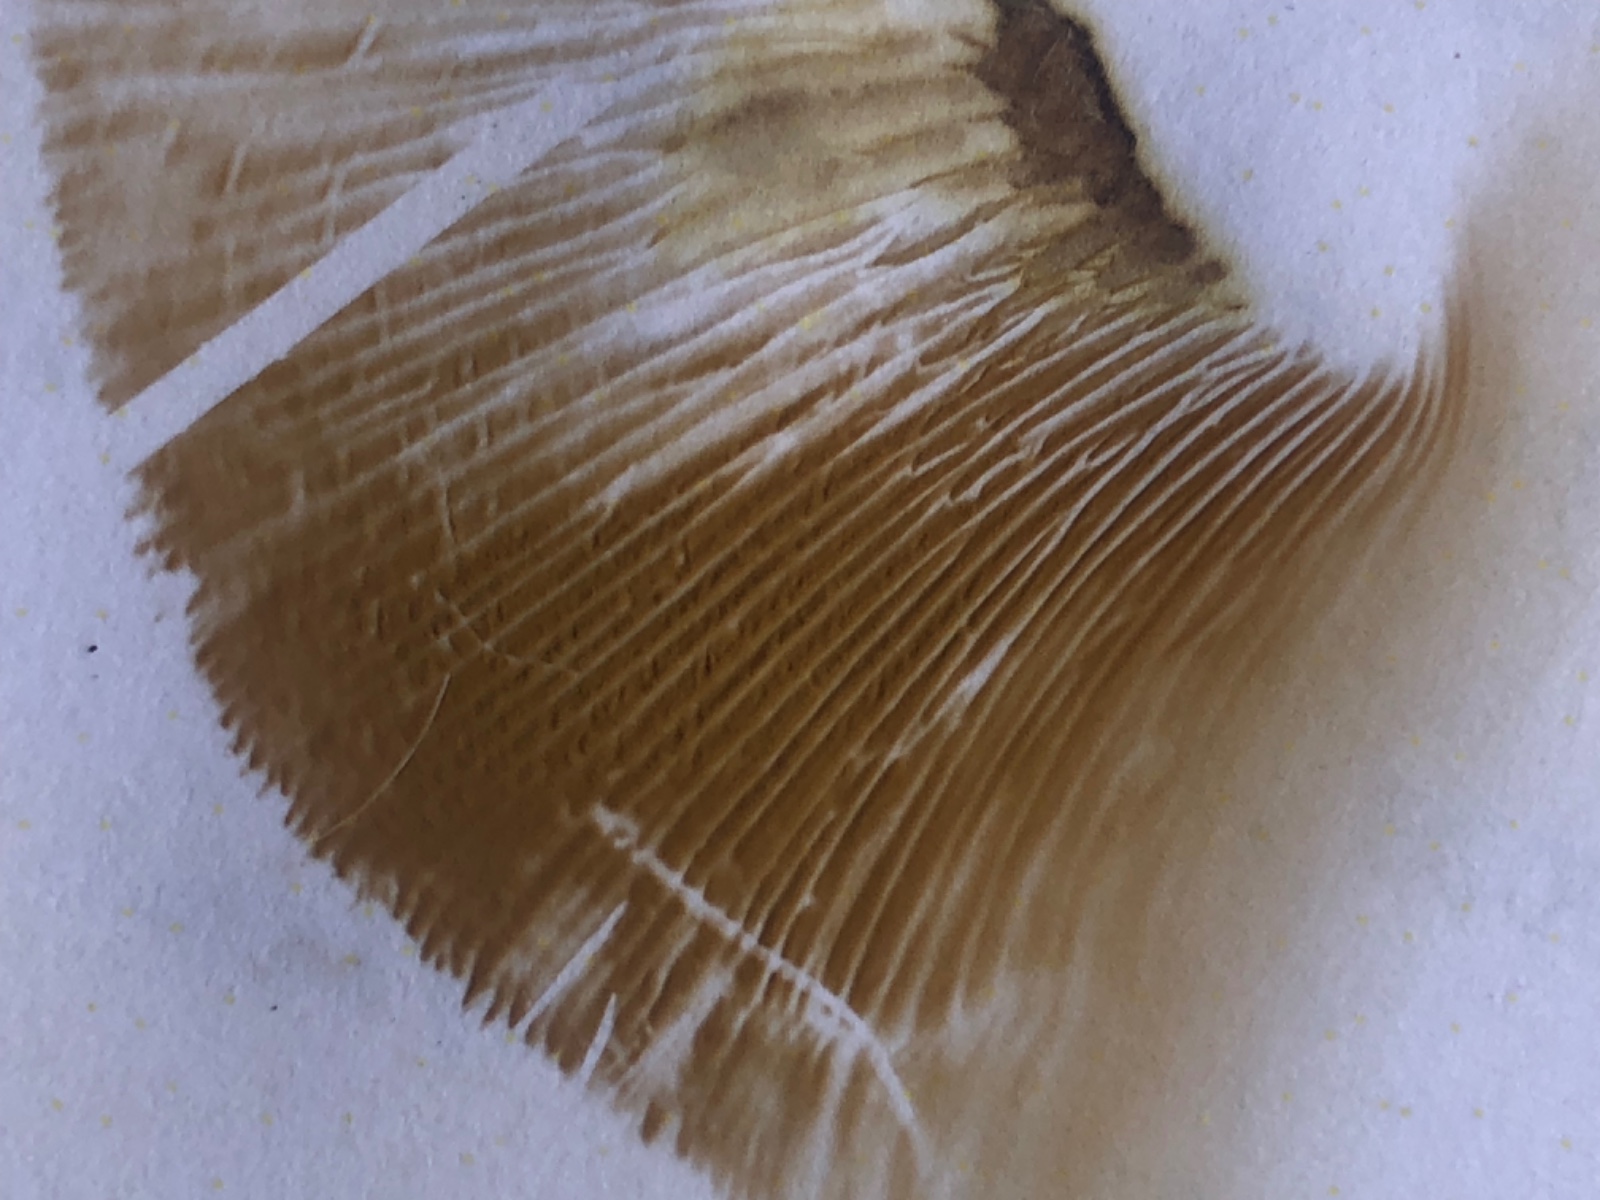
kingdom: Fungi
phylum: Basidiomycota
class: Agaricomycetes
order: Boletales
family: Paxillaceae
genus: Paxillus
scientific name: Paxillus ammoniavirescens
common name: olivensporet netbladhat
